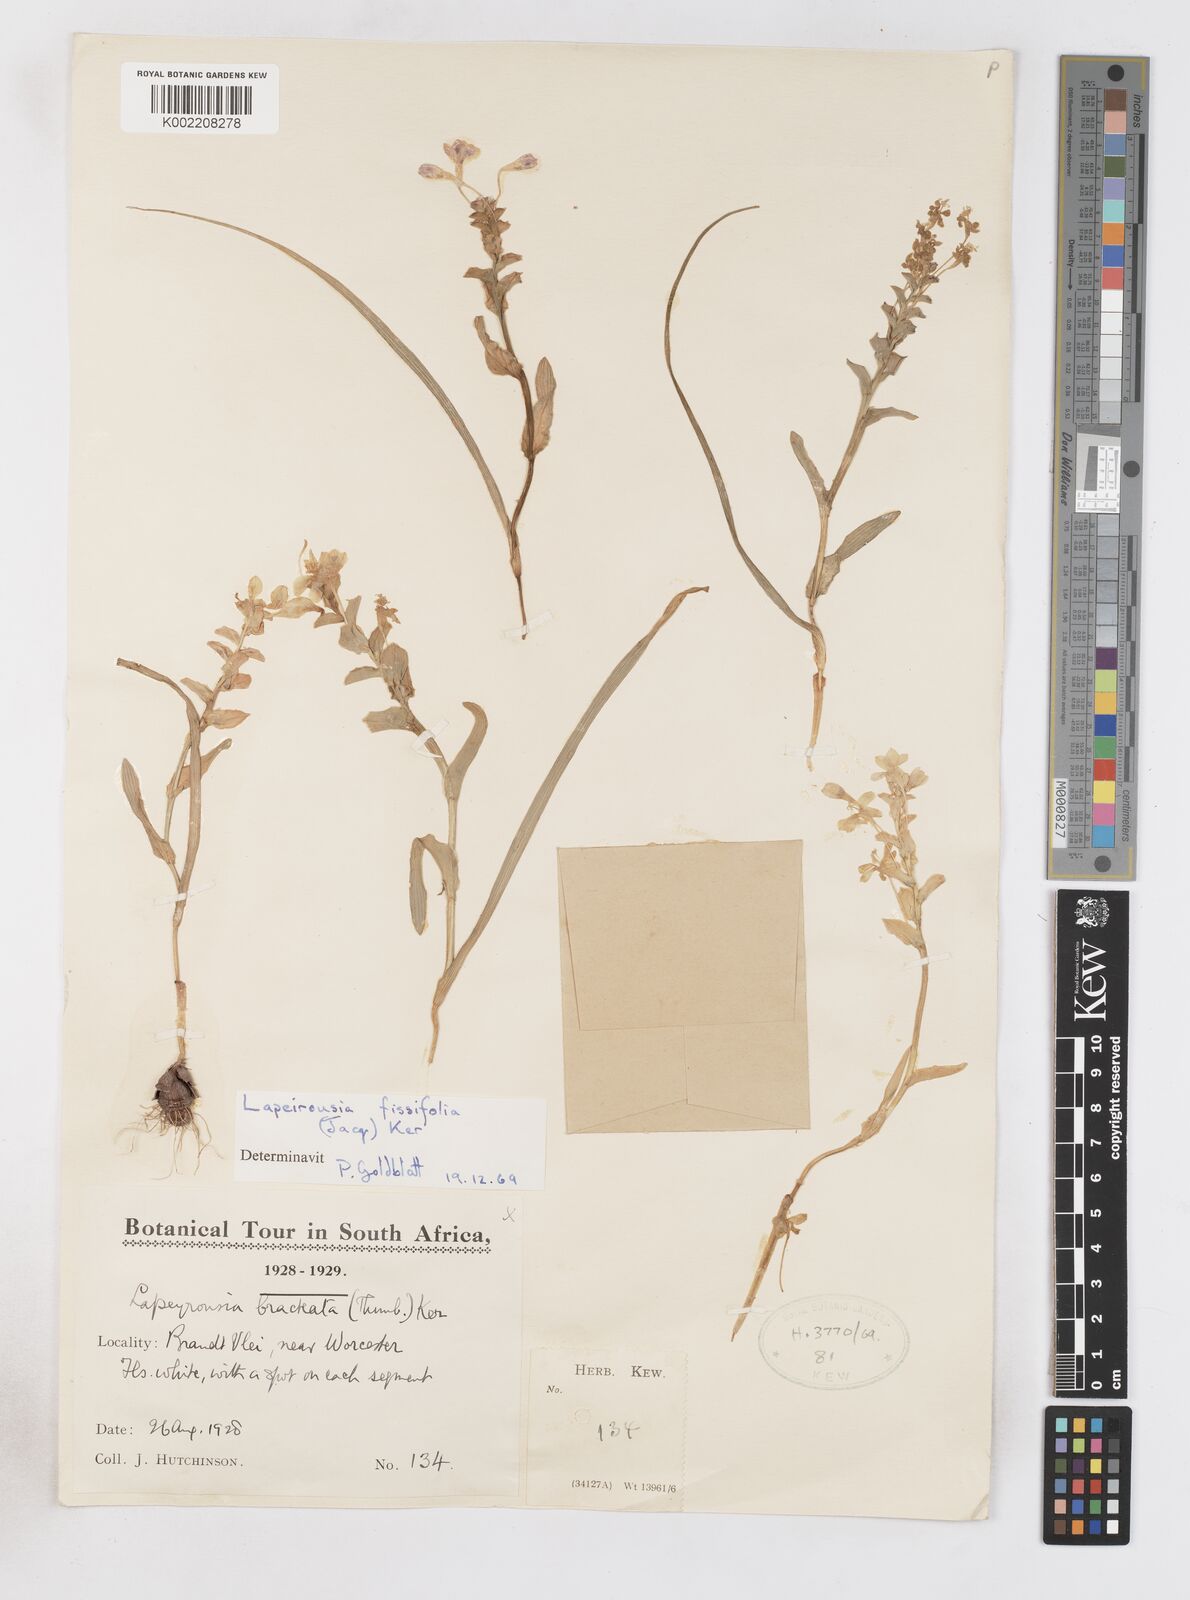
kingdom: Plantae
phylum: Tracheophyta
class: Liliopsida
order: Asparagales
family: Iridaceae
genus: Lapeirousia
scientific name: Lapeirousia pyramidalis
